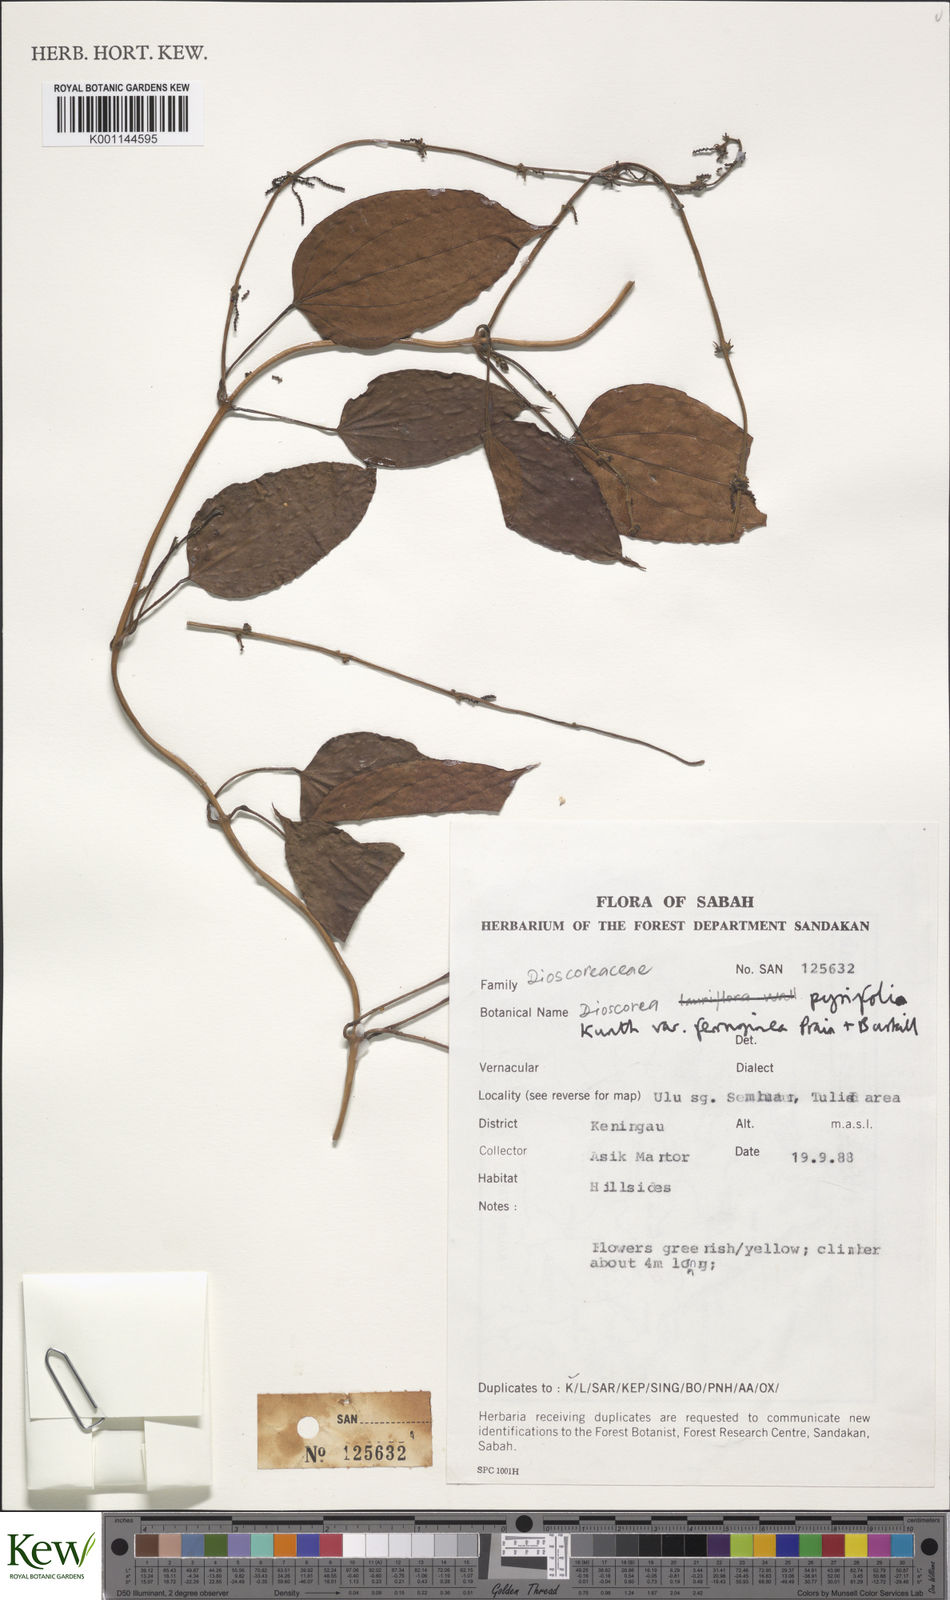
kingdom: Plantae
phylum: Tracheophyta
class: Liliopsida
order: Dioscoreales
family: Dioscoreaceae
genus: Dioscorea
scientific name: Dioscorea pyrifolia
